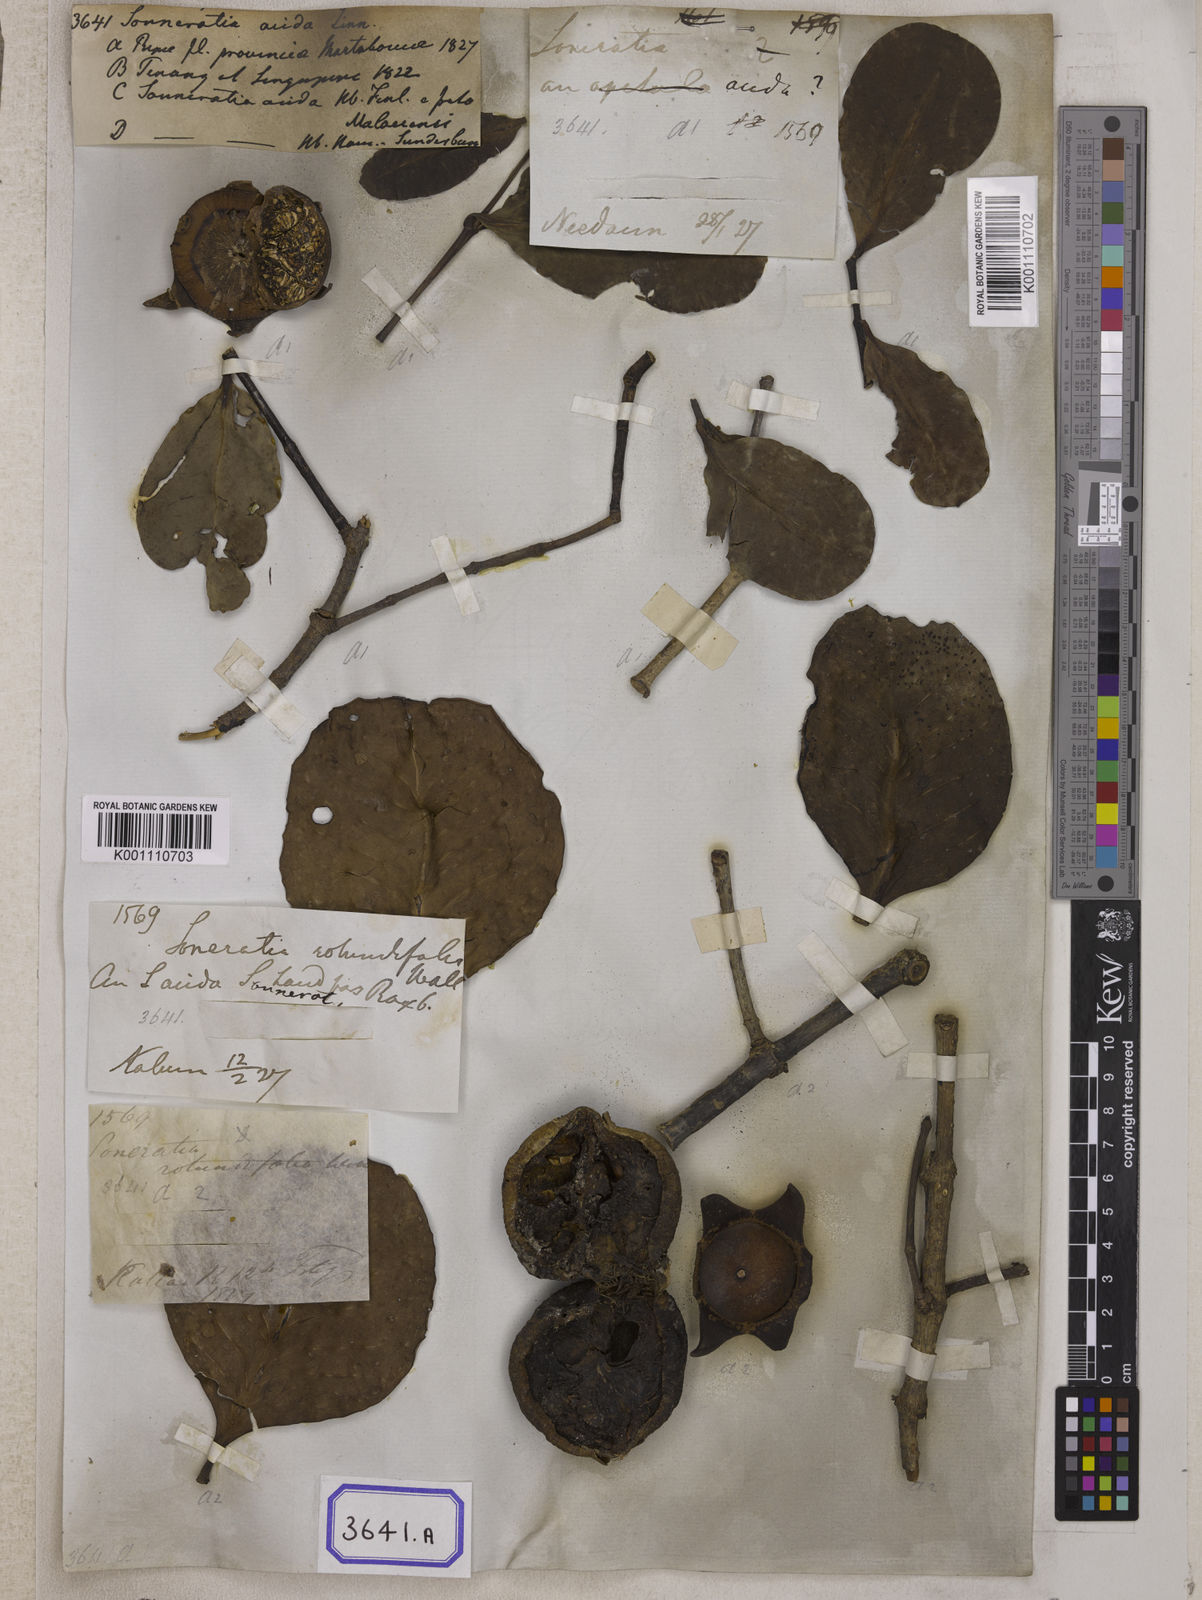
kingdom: Plantae
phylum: Tracheophyta
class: Magnoliopsida
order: Myrtales
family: Lythraceae
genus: Sonneratia
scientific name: Sonneratia caseolaris
